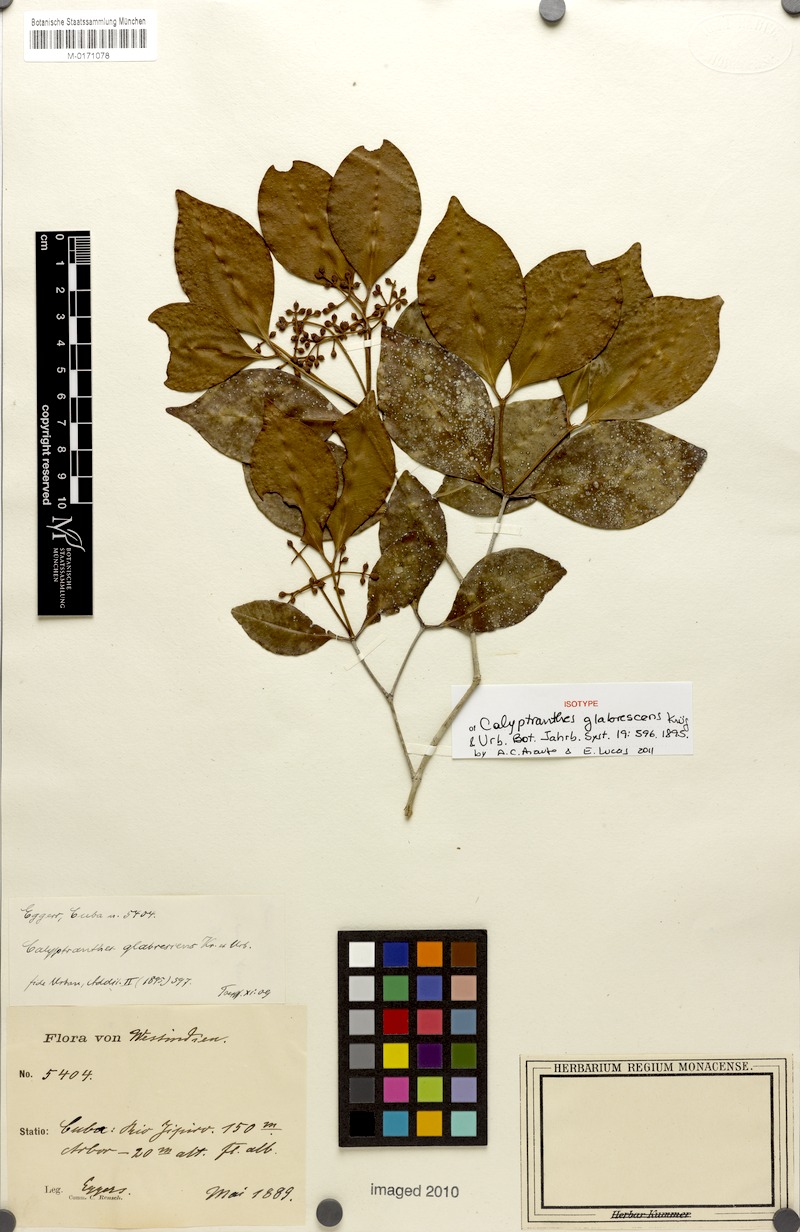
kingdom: Plantae
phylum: Tracheophyta
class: Magnoliopsida
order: Myrtales
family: Myrtaceae
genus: Myrcia
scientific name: Myrcia glabrescens
